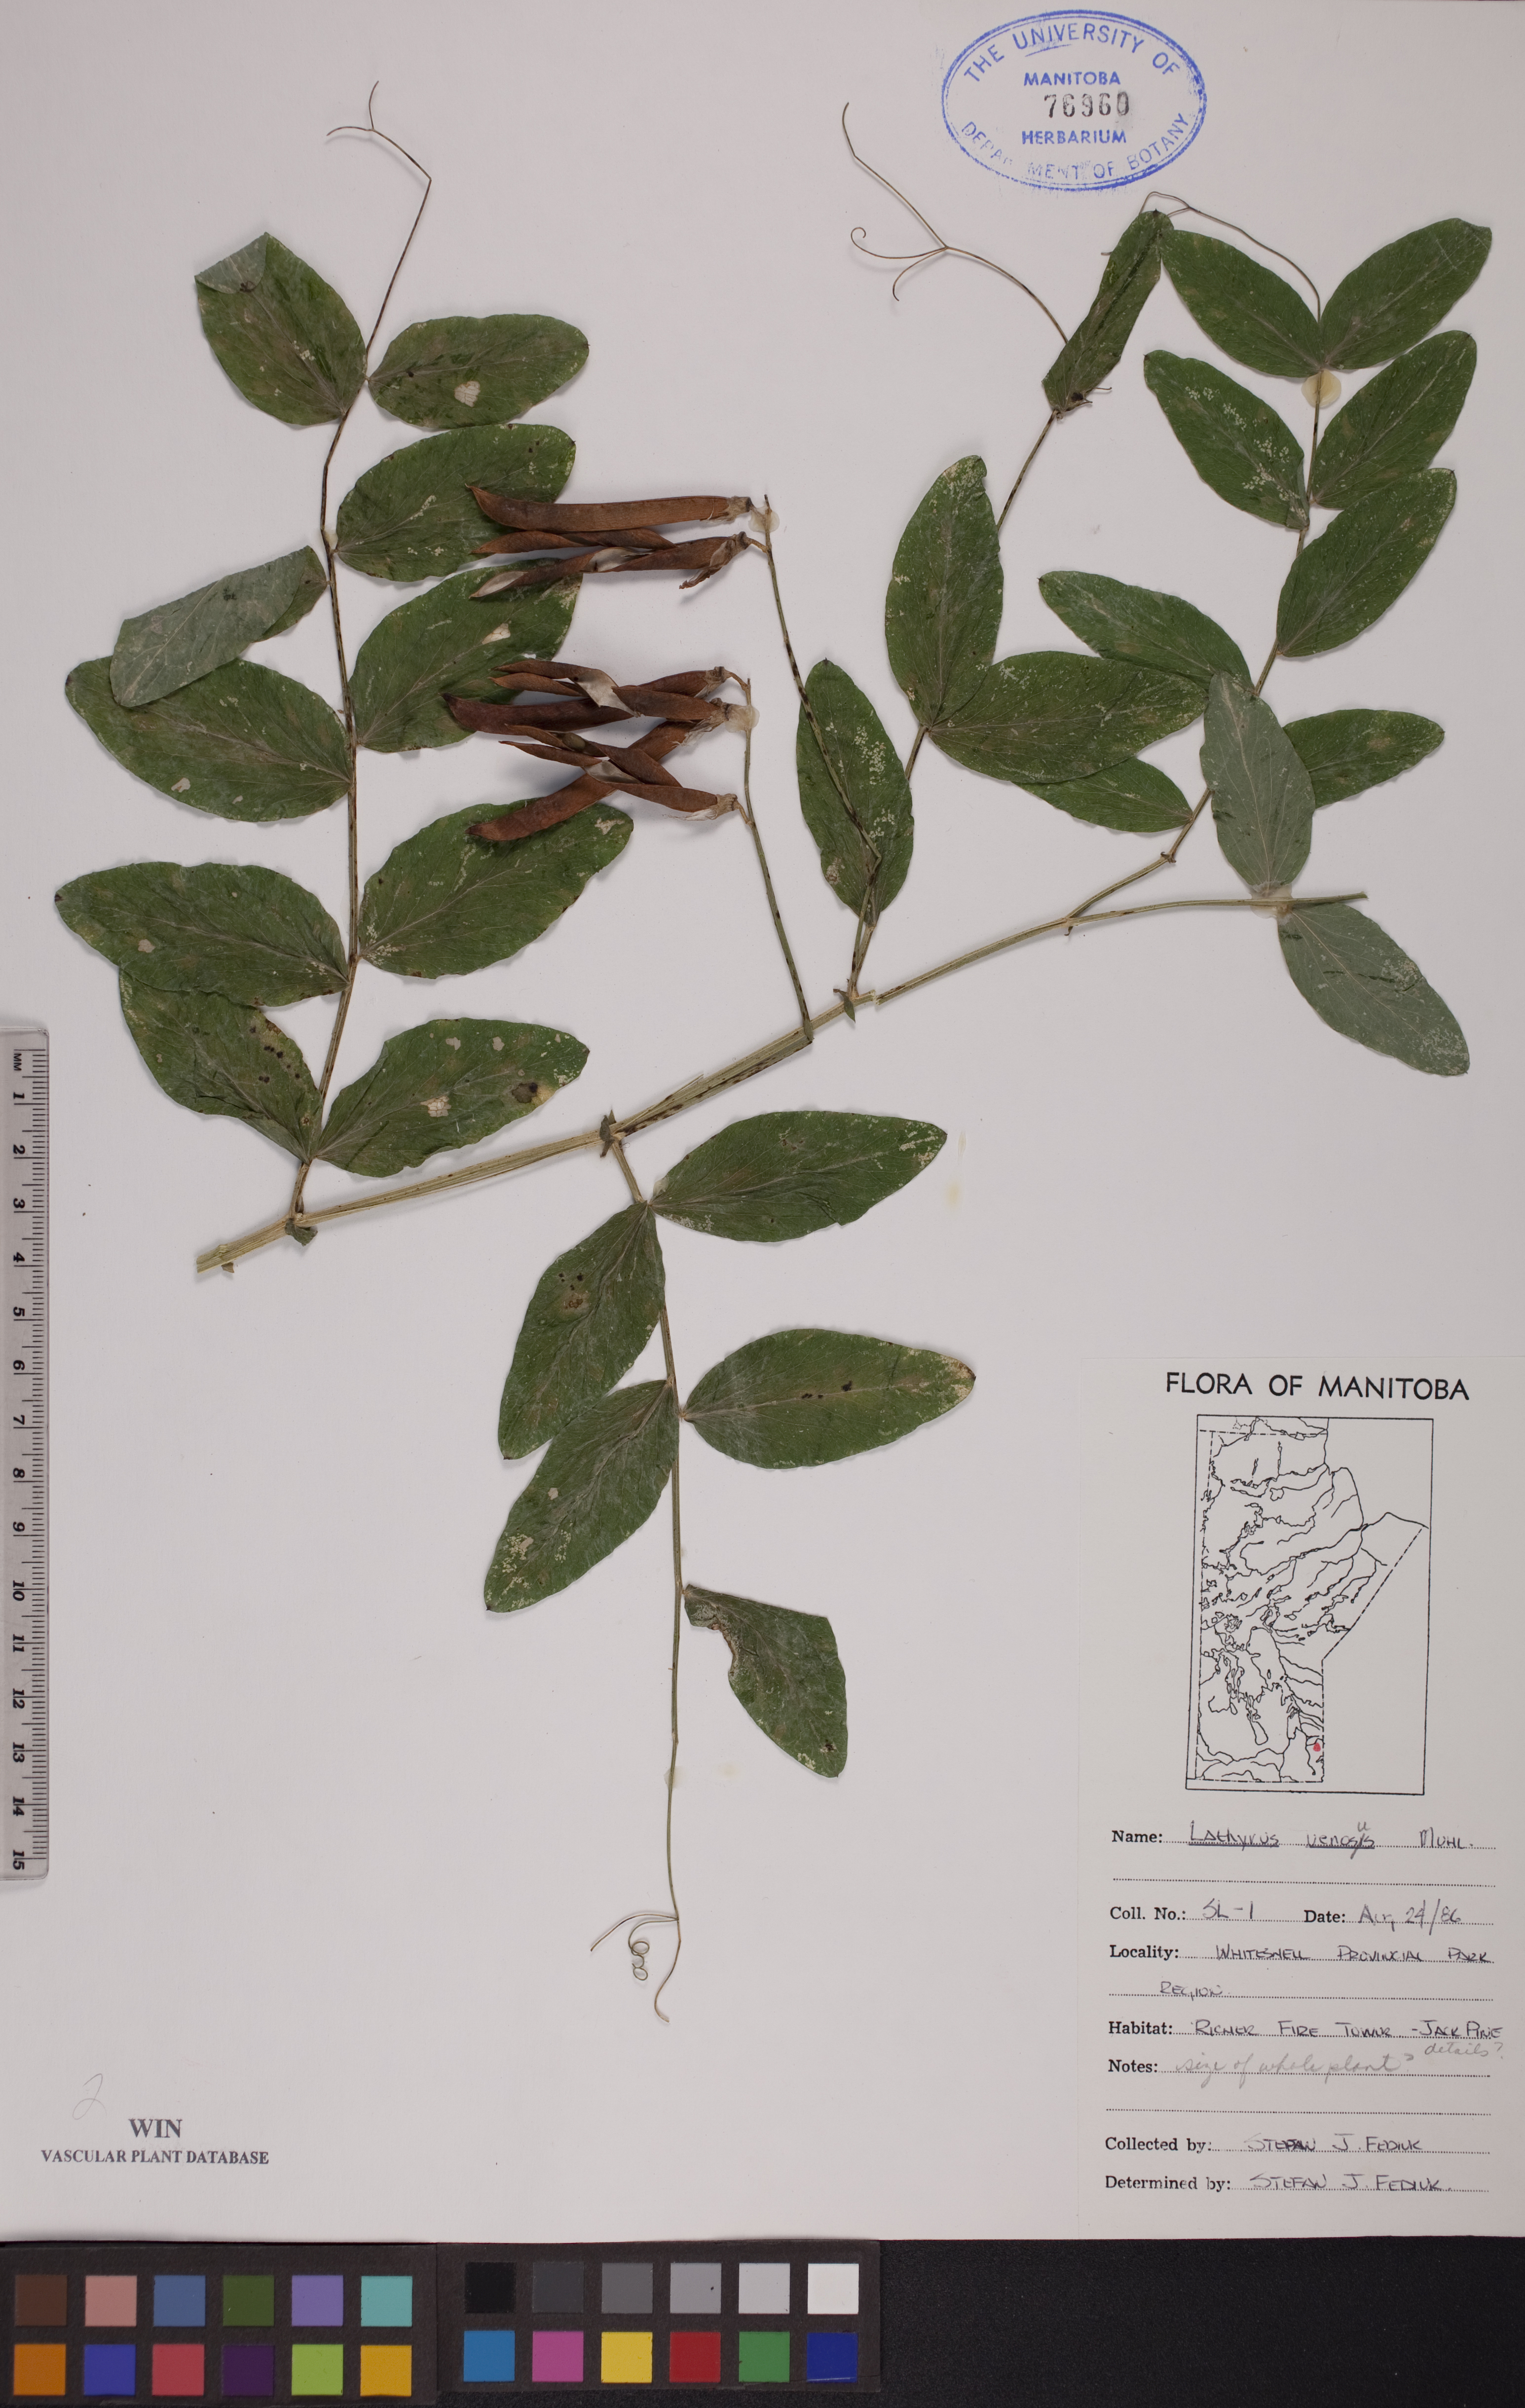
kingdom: Plantae
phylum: Tracheophyta
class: Magnoliopsida
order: Fabales
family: Fabaceae
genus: Lathyrus
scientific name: Lathyrus venosus
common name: Forest-pea
